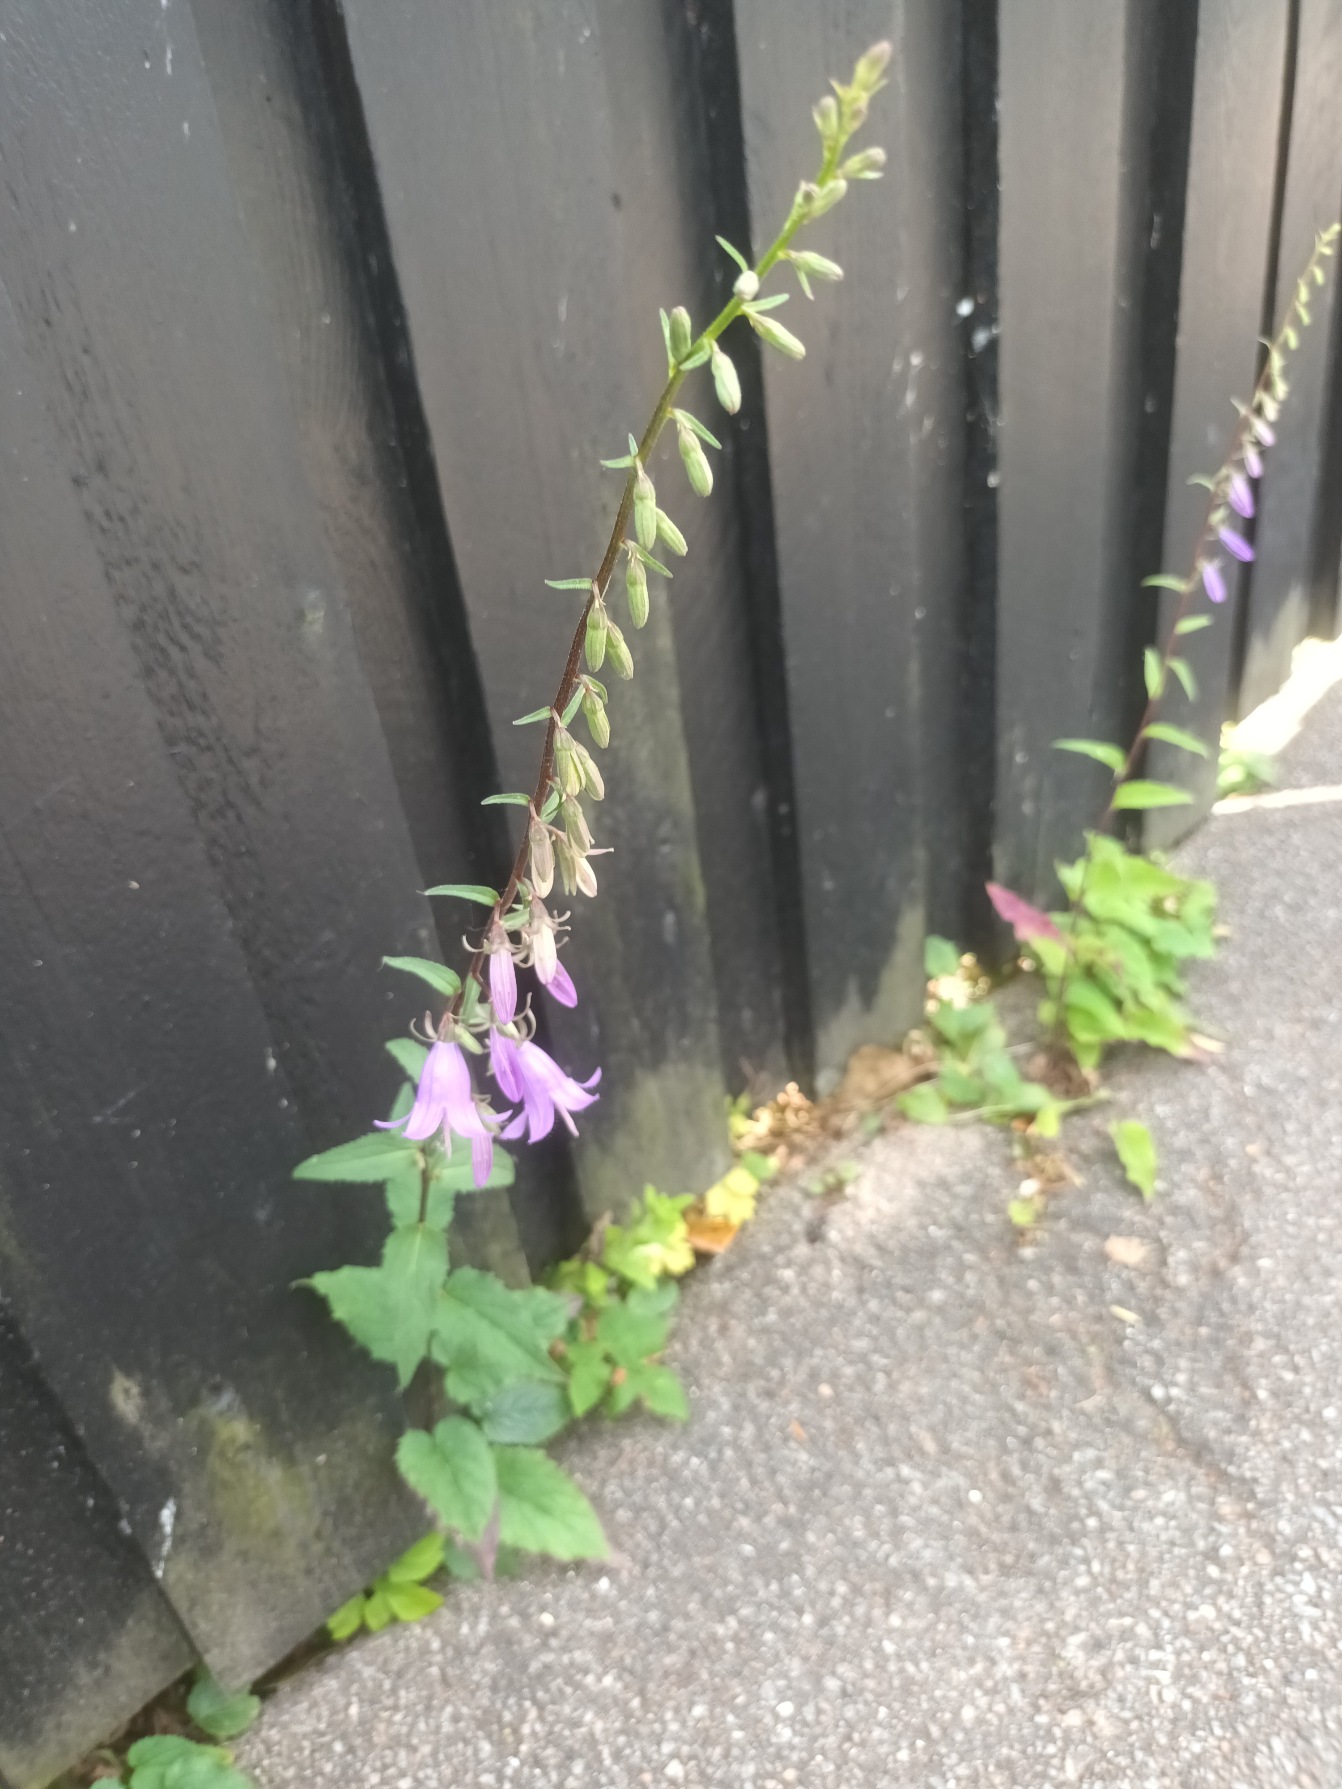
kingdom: Plantae
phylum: Tracheophyta
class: Magnoliopsida
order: Asterales
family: Campanulaceae
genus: Campanula
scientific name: Campanula rapunculoides
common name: Ensidig klokke
